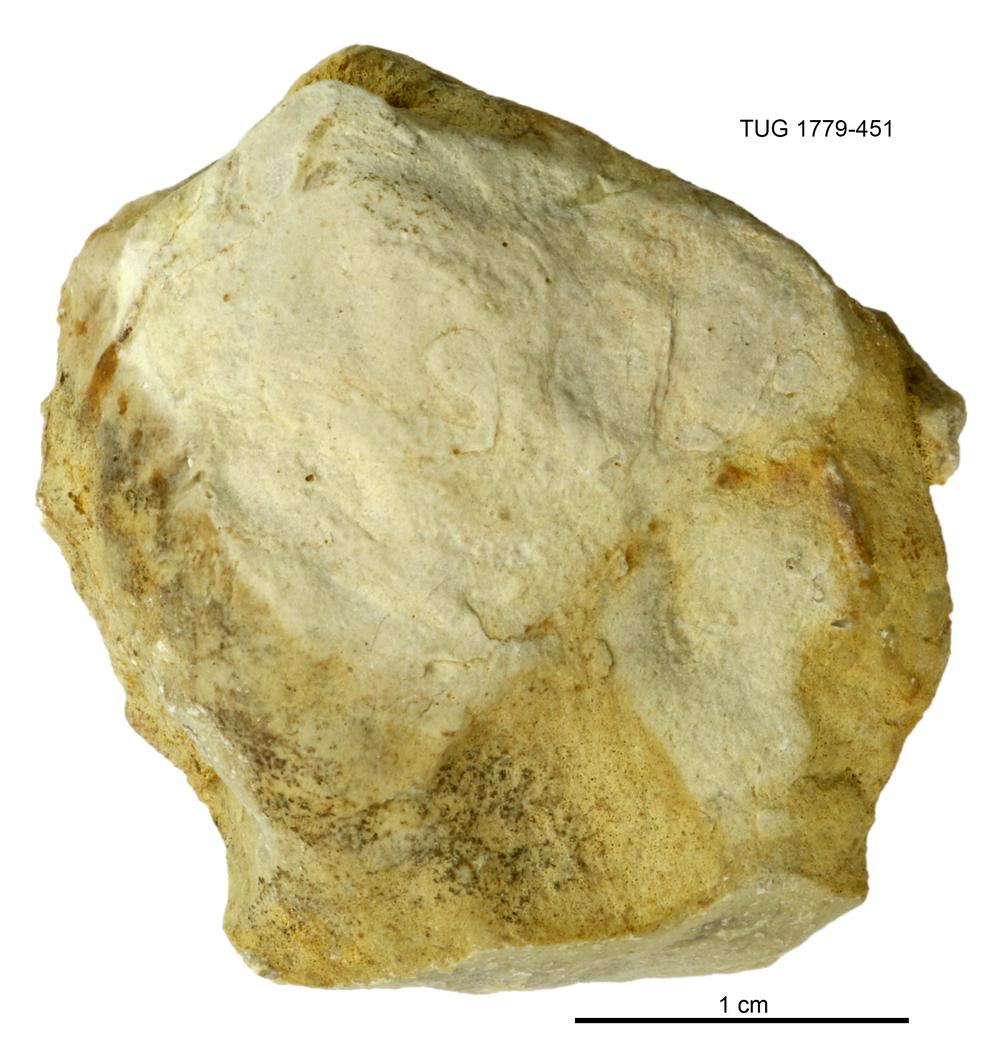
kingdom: Animalia
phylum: Mollusca
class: Bivalvia
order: Modiomorphida
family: Modiomorphidae
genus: Modiolopsis
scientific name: Modiolopsis
